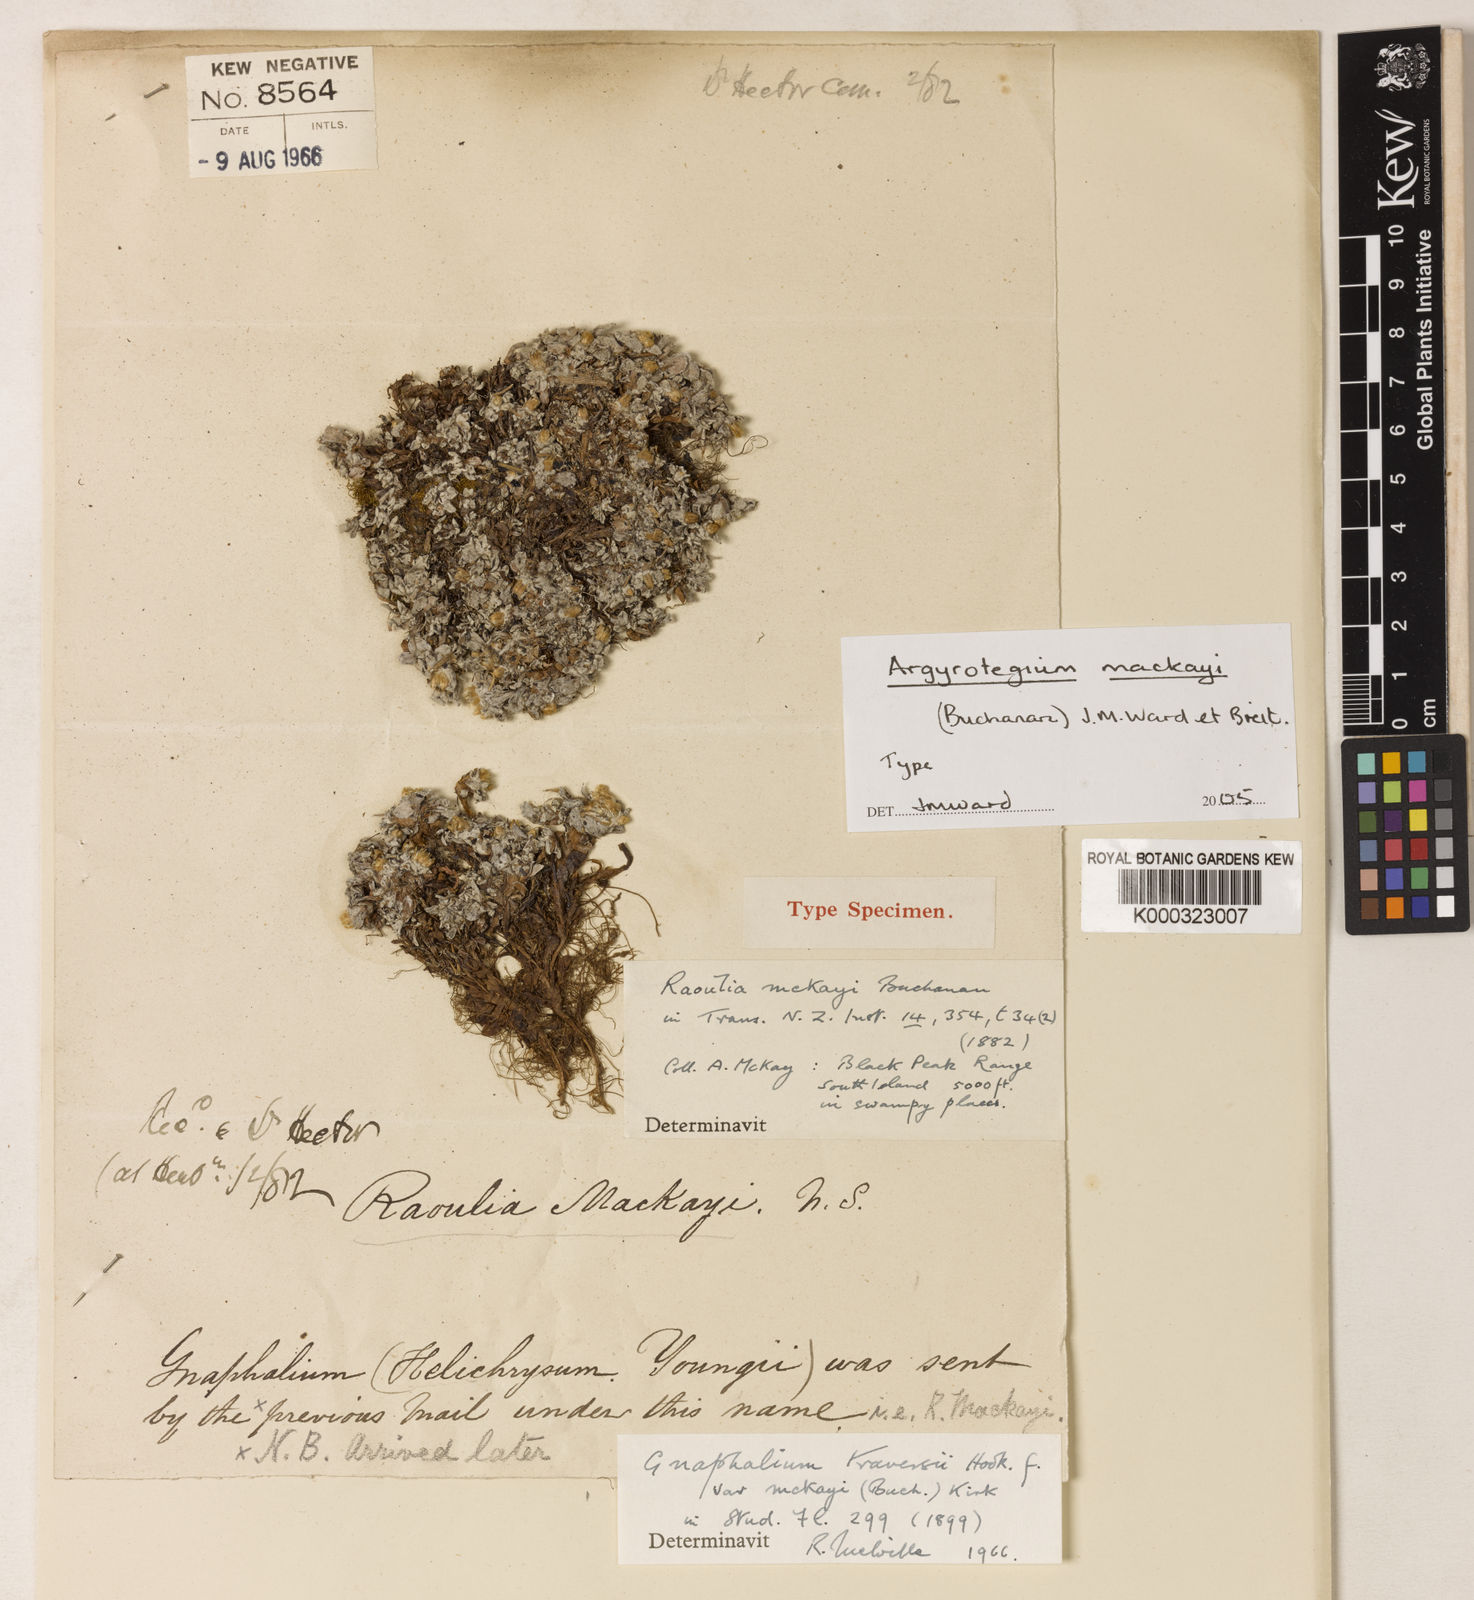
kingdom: Plantae
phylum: Tracheophyta
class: Magnoliopsida
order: Asterales
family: Asteraceae
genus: Argyrotegium
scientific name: Argyrotegium mackayi
